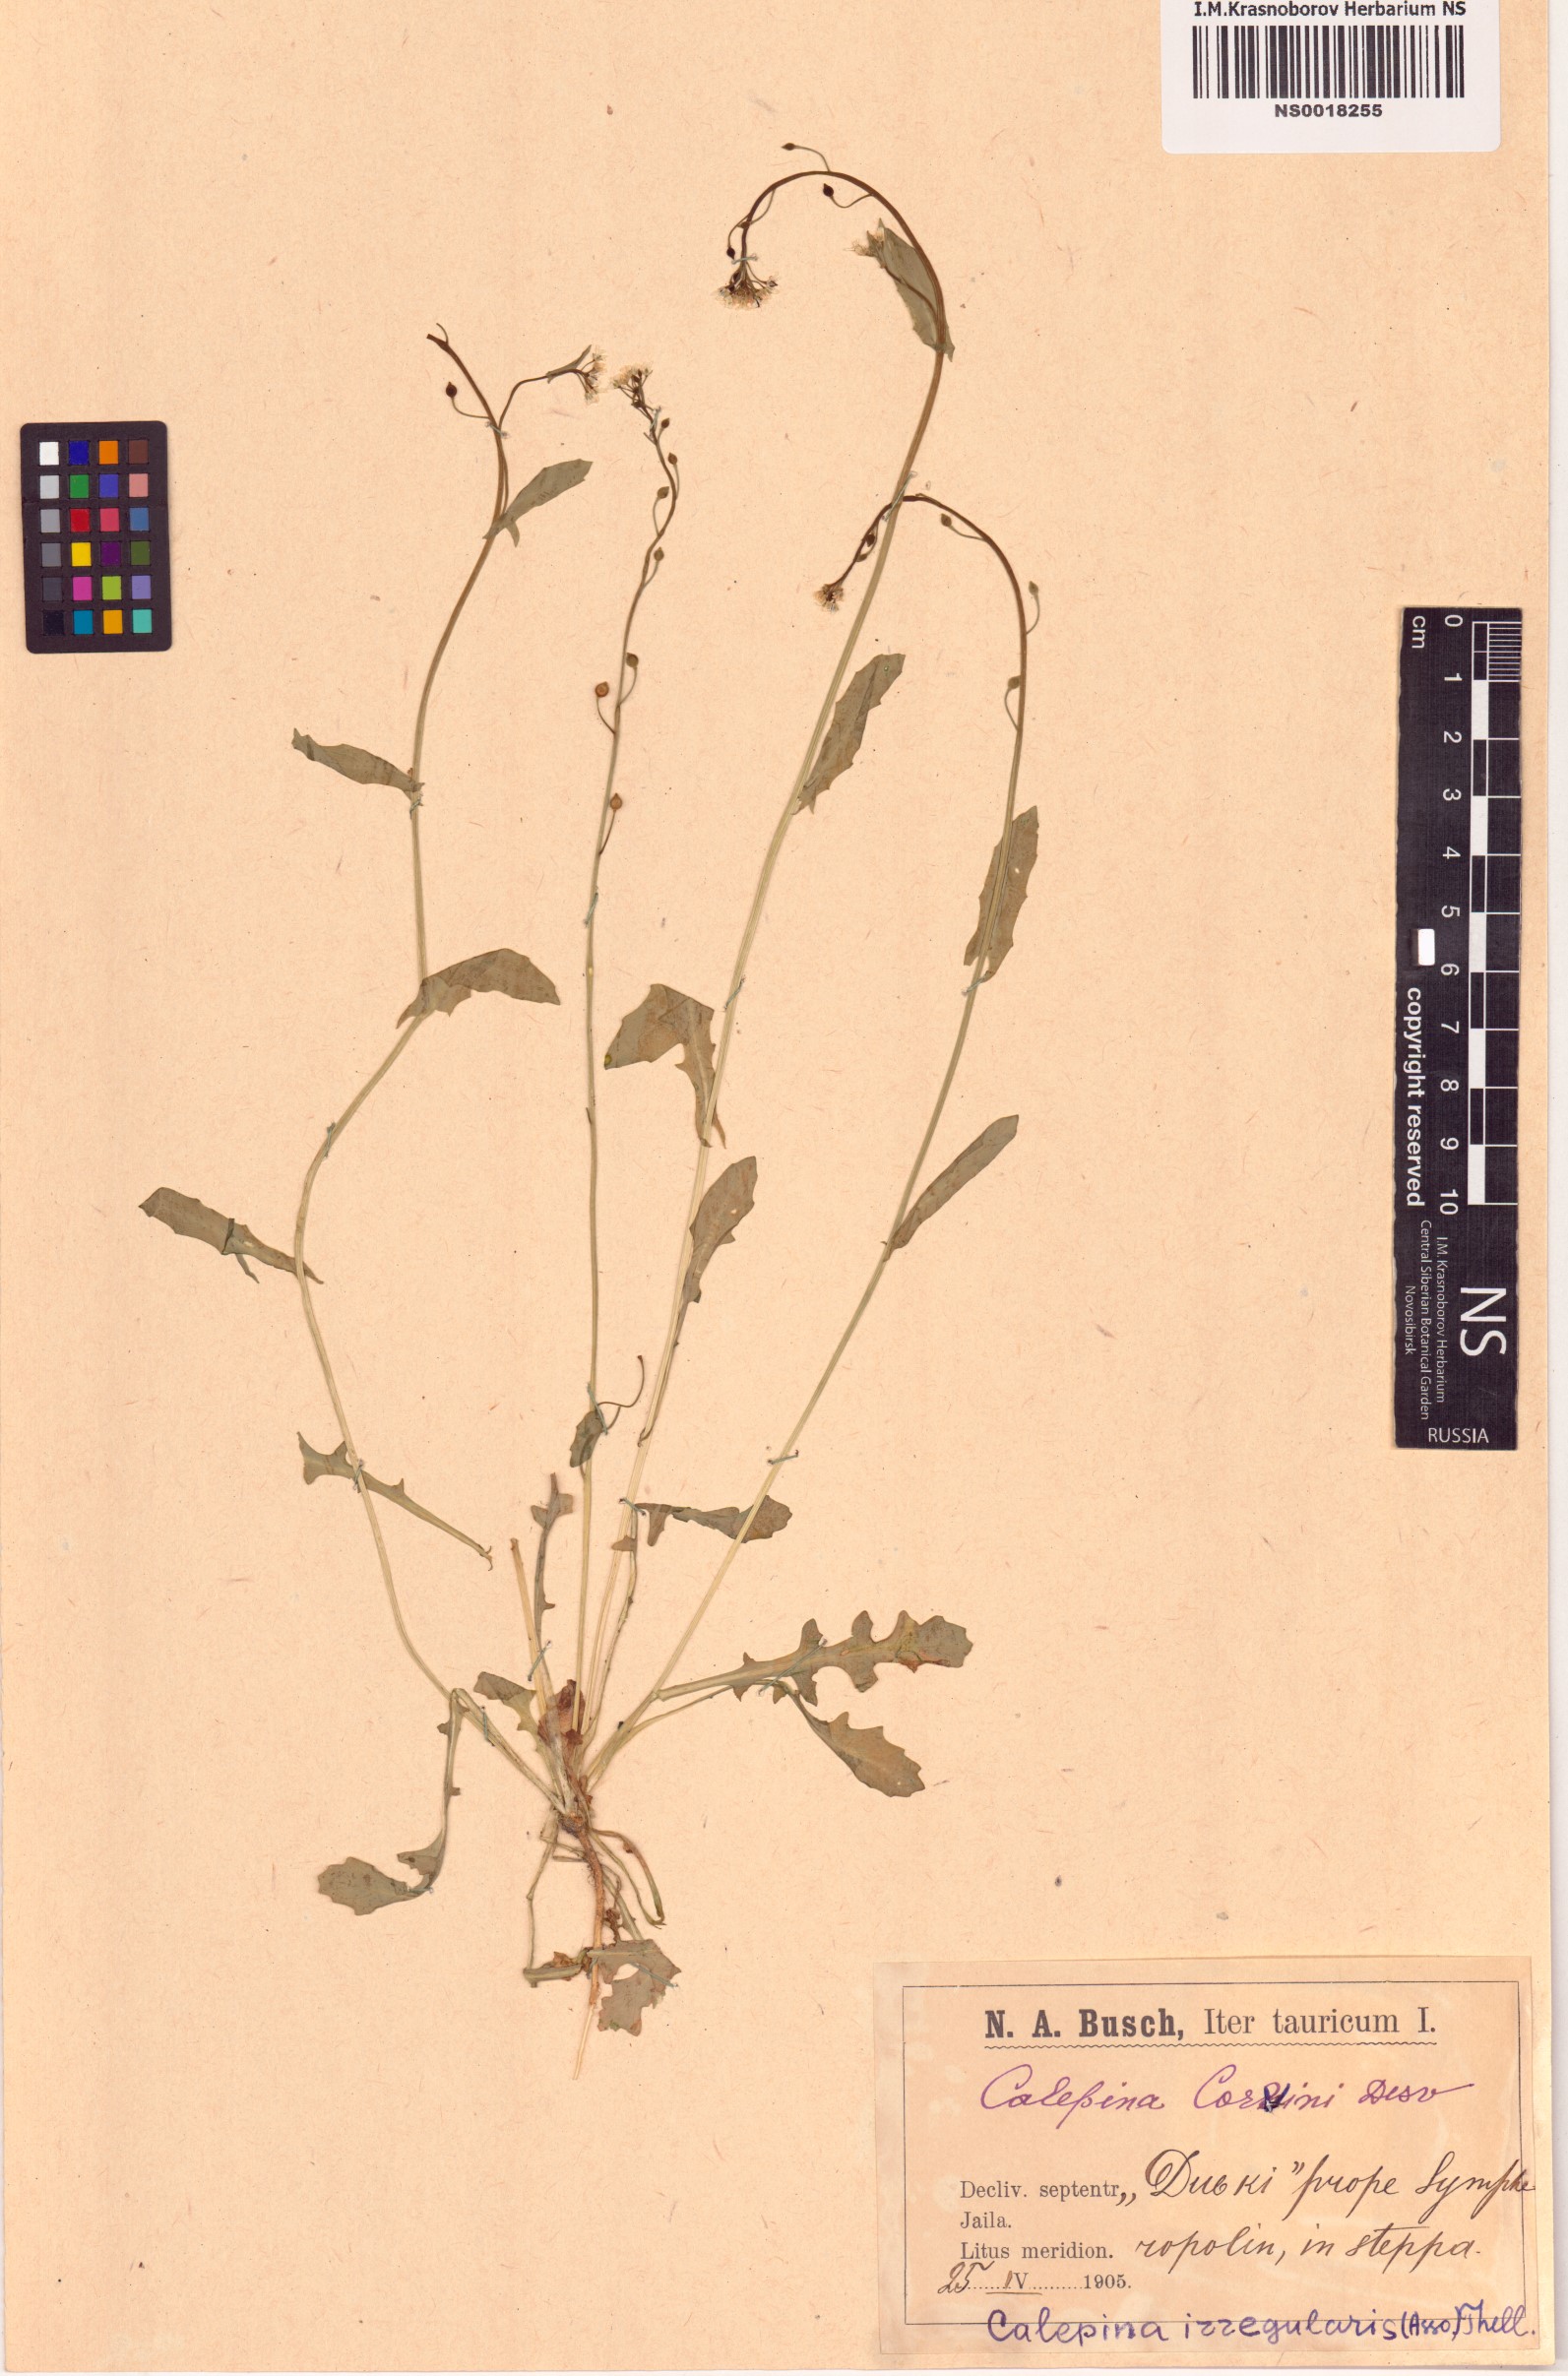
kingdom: Plantae
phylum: Tracheophyta
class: Magnoliopsida
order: Brassicales
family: Brassicaceae
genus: Calepina
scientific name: Calepina irregularis
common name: White ballmustard
